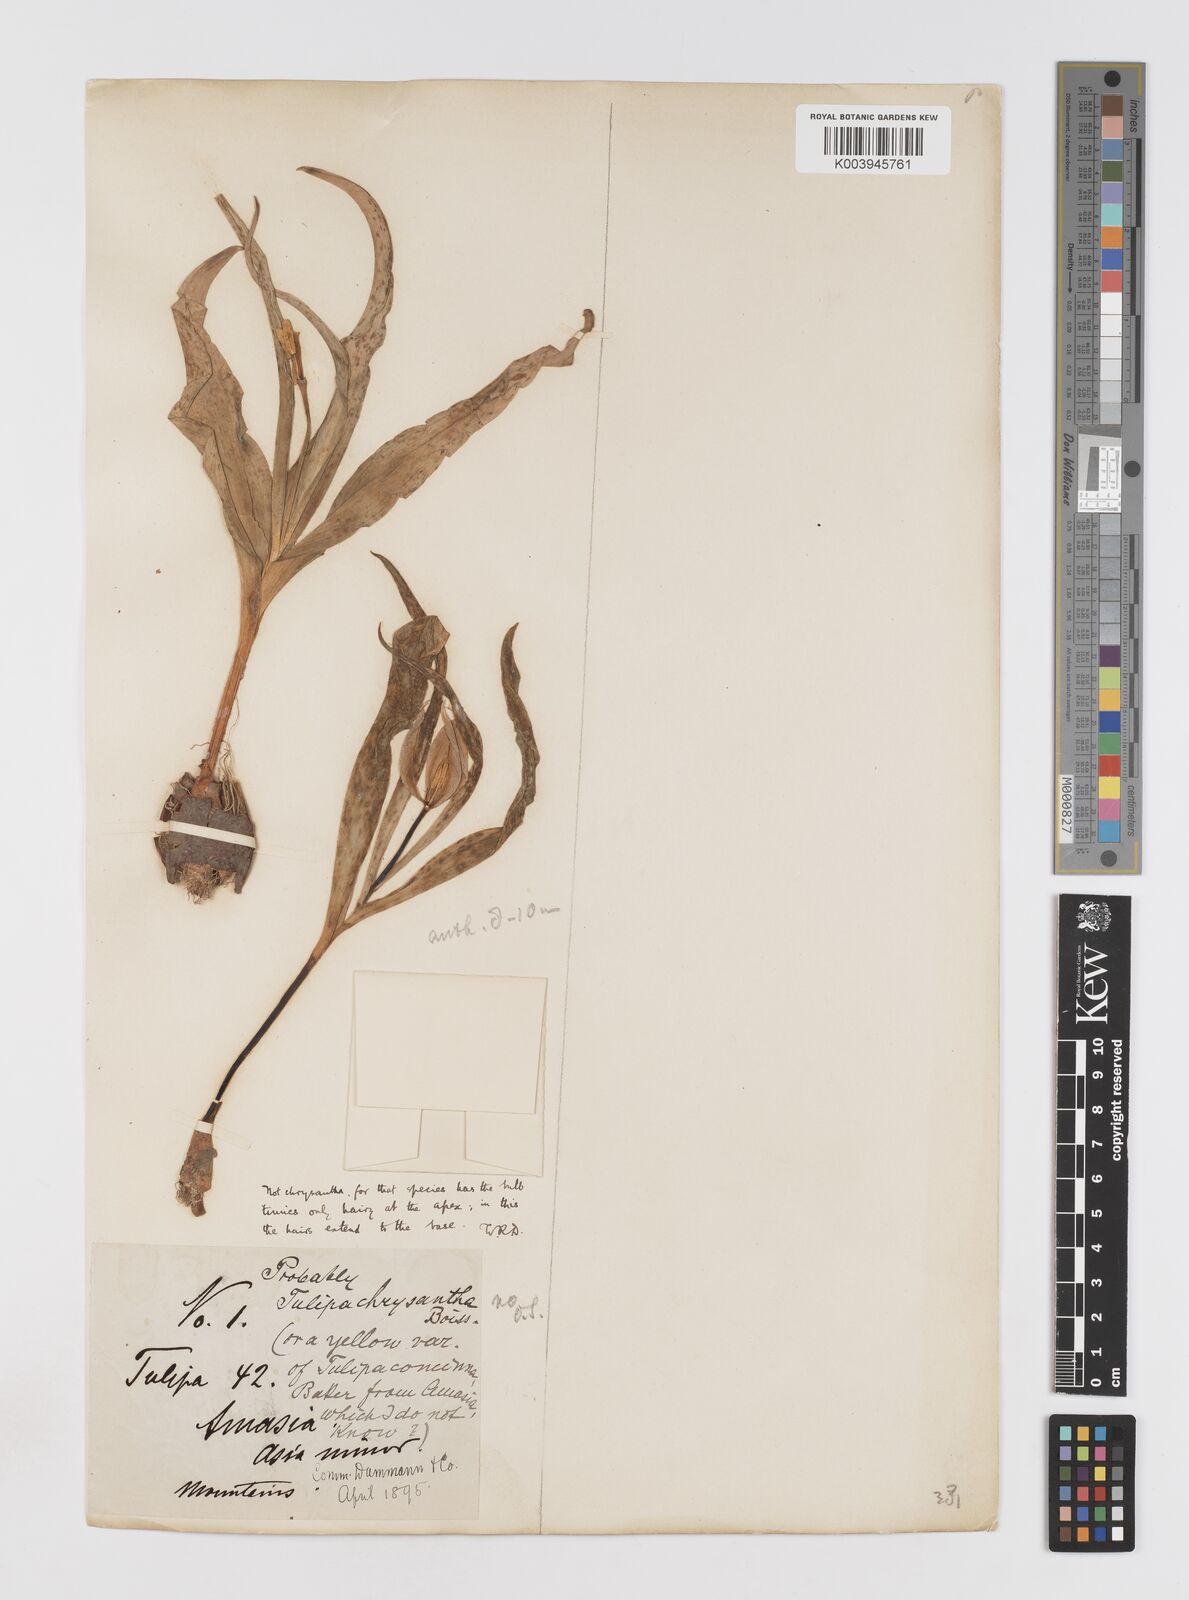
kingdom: Plantae
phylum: Tracheophyta
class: Liliopsida
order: Liliales
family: Liliaceae
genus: Tulipa
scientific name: Tulipa foliosa
